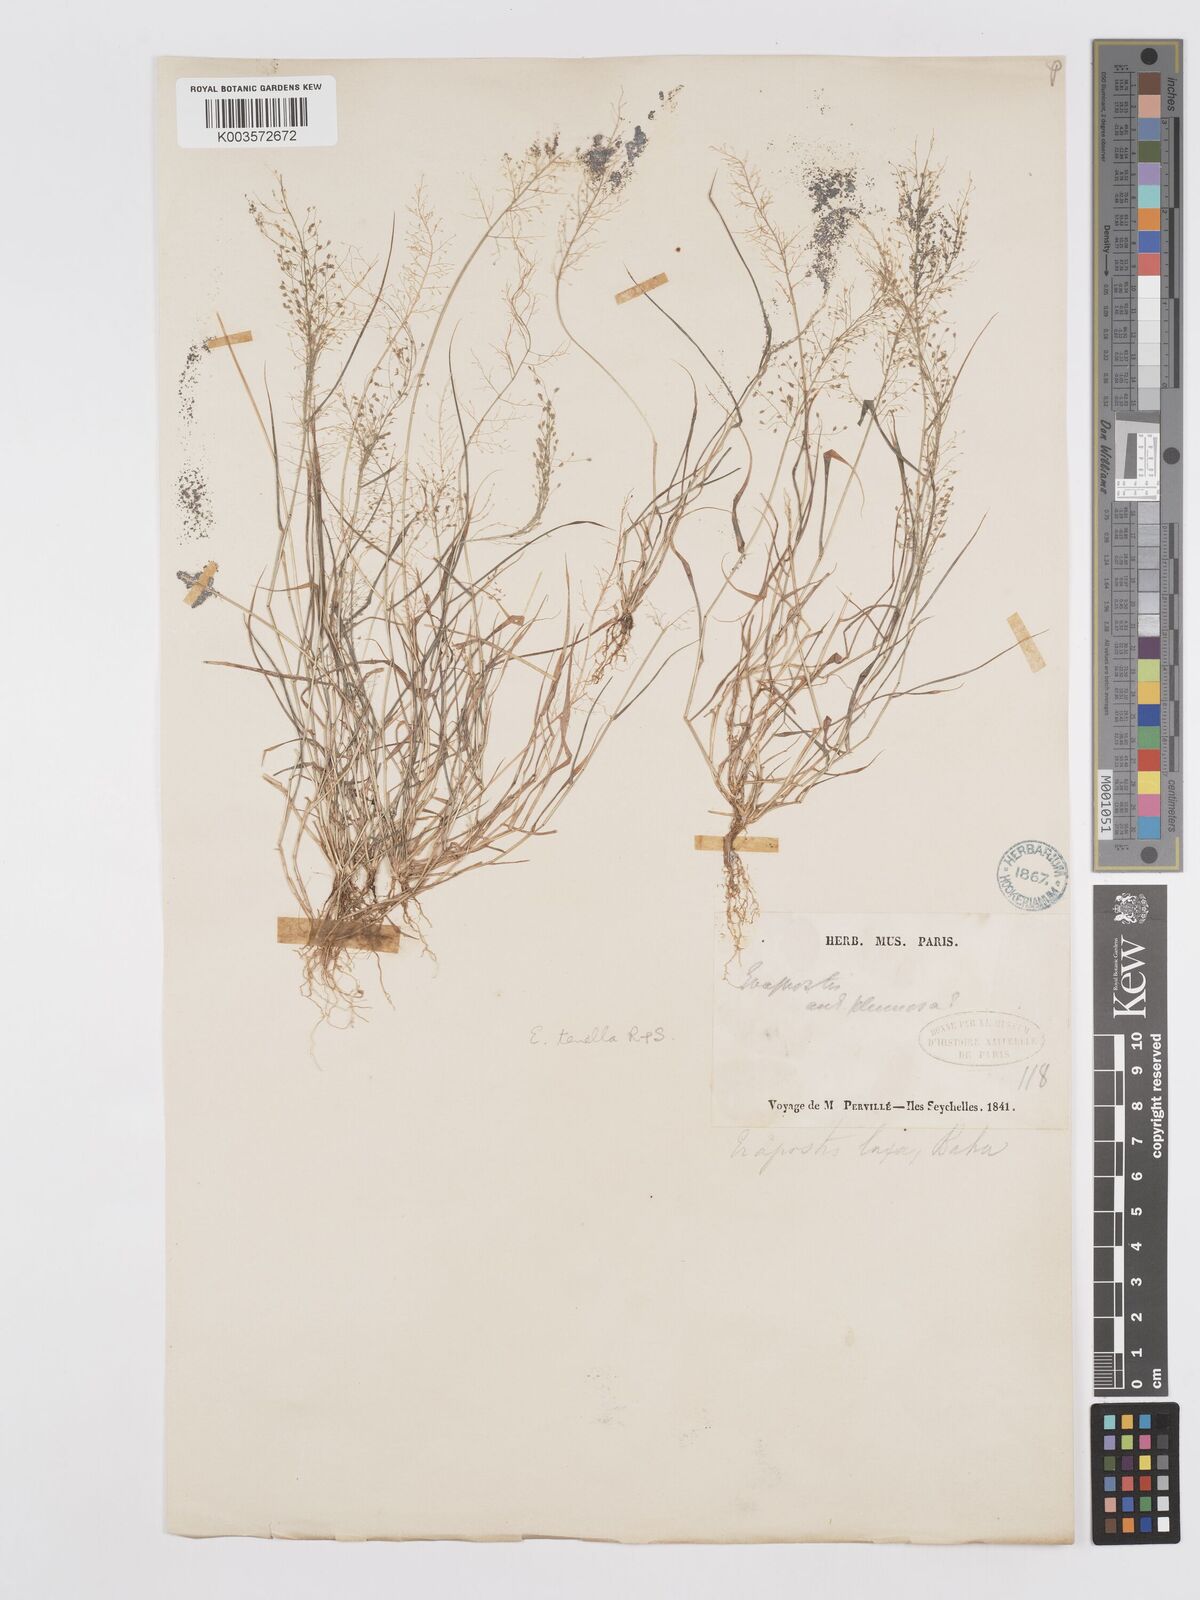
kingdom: Plantae
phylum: Tracheophyta
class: Liliopsida
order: Poales
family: Poaceae
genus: Eragrostis
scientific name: Eragrostis tenella
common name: Japanese lovegrass
